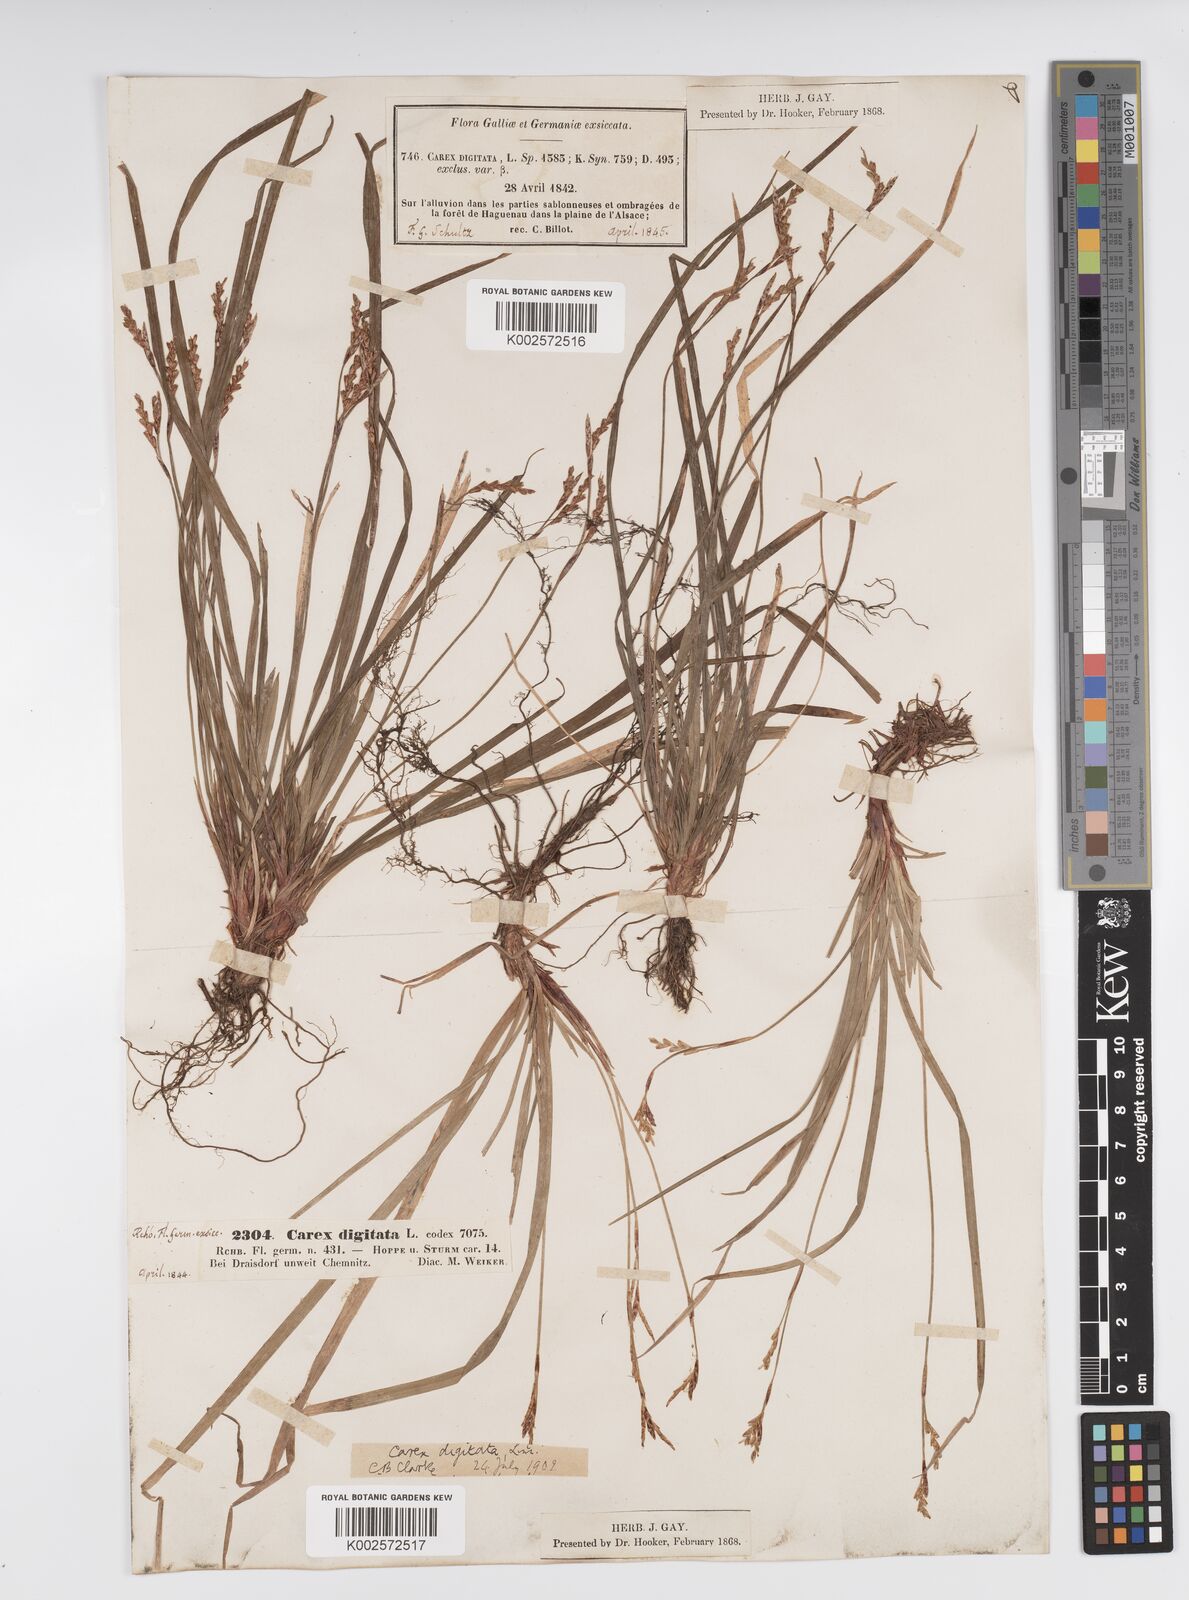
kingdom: Plantae
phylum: Tracheophyta
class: Liliopsida
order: Poales
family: Cyperaceae
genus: Carex
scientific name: Carex digitata
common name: Fingered sedge
